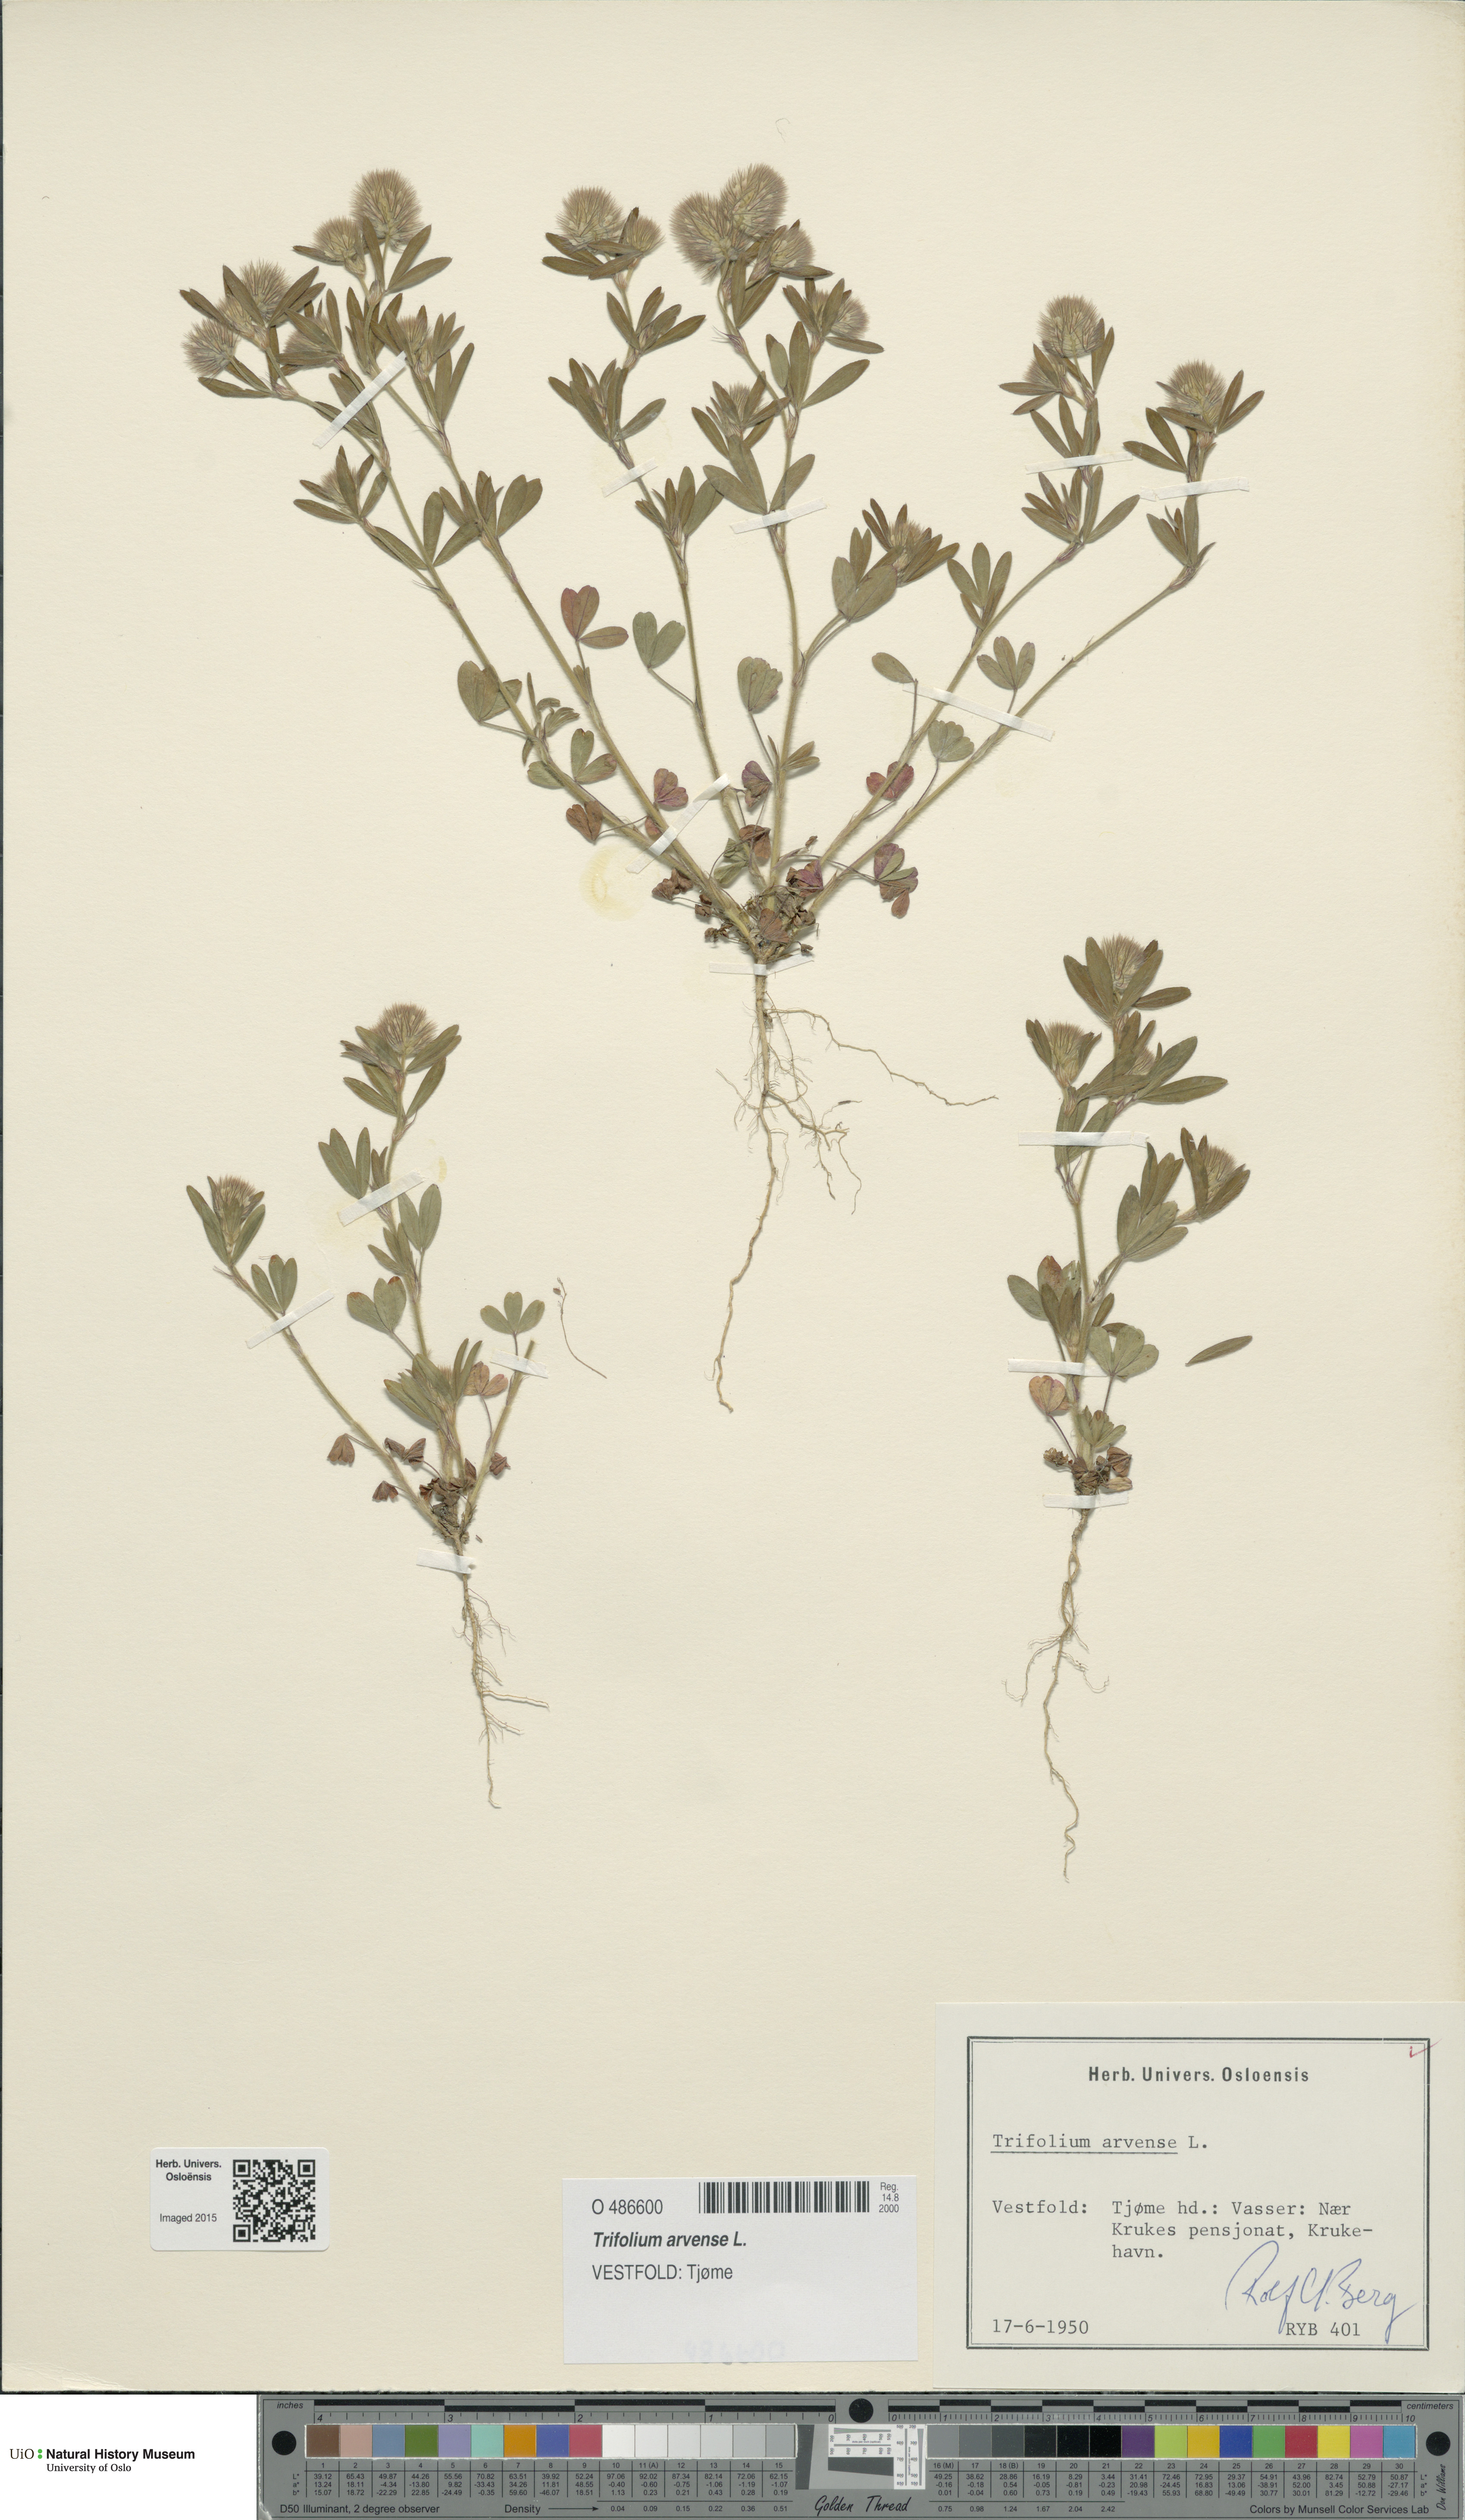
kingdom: Plantae
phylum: Tracheophyta
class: Magnoliopsida
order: Fabales
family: Fabaceae
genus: Trifolium
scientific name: Trifolium arvense
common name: Hare's-foot clover
